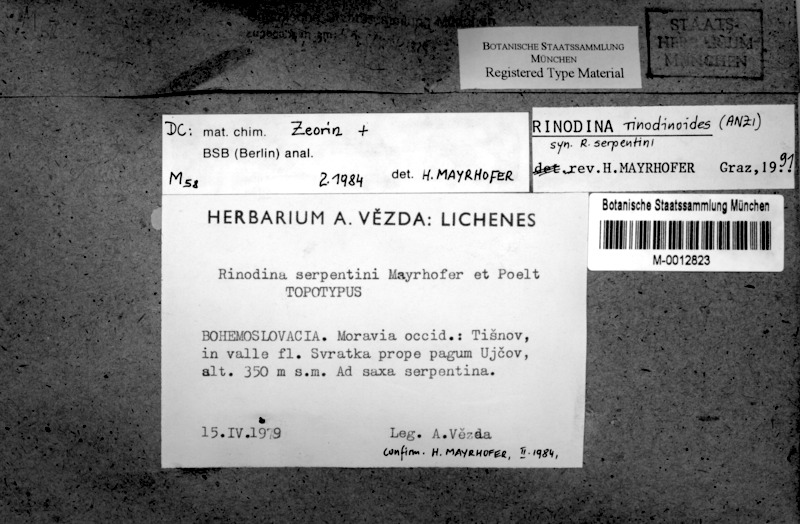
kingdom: Fungi
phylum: Ascomycota
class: Lecanoromycetes
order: Caliciales
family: Physciaceae
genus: Rinodina
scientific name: Rinodina rinodinoides
